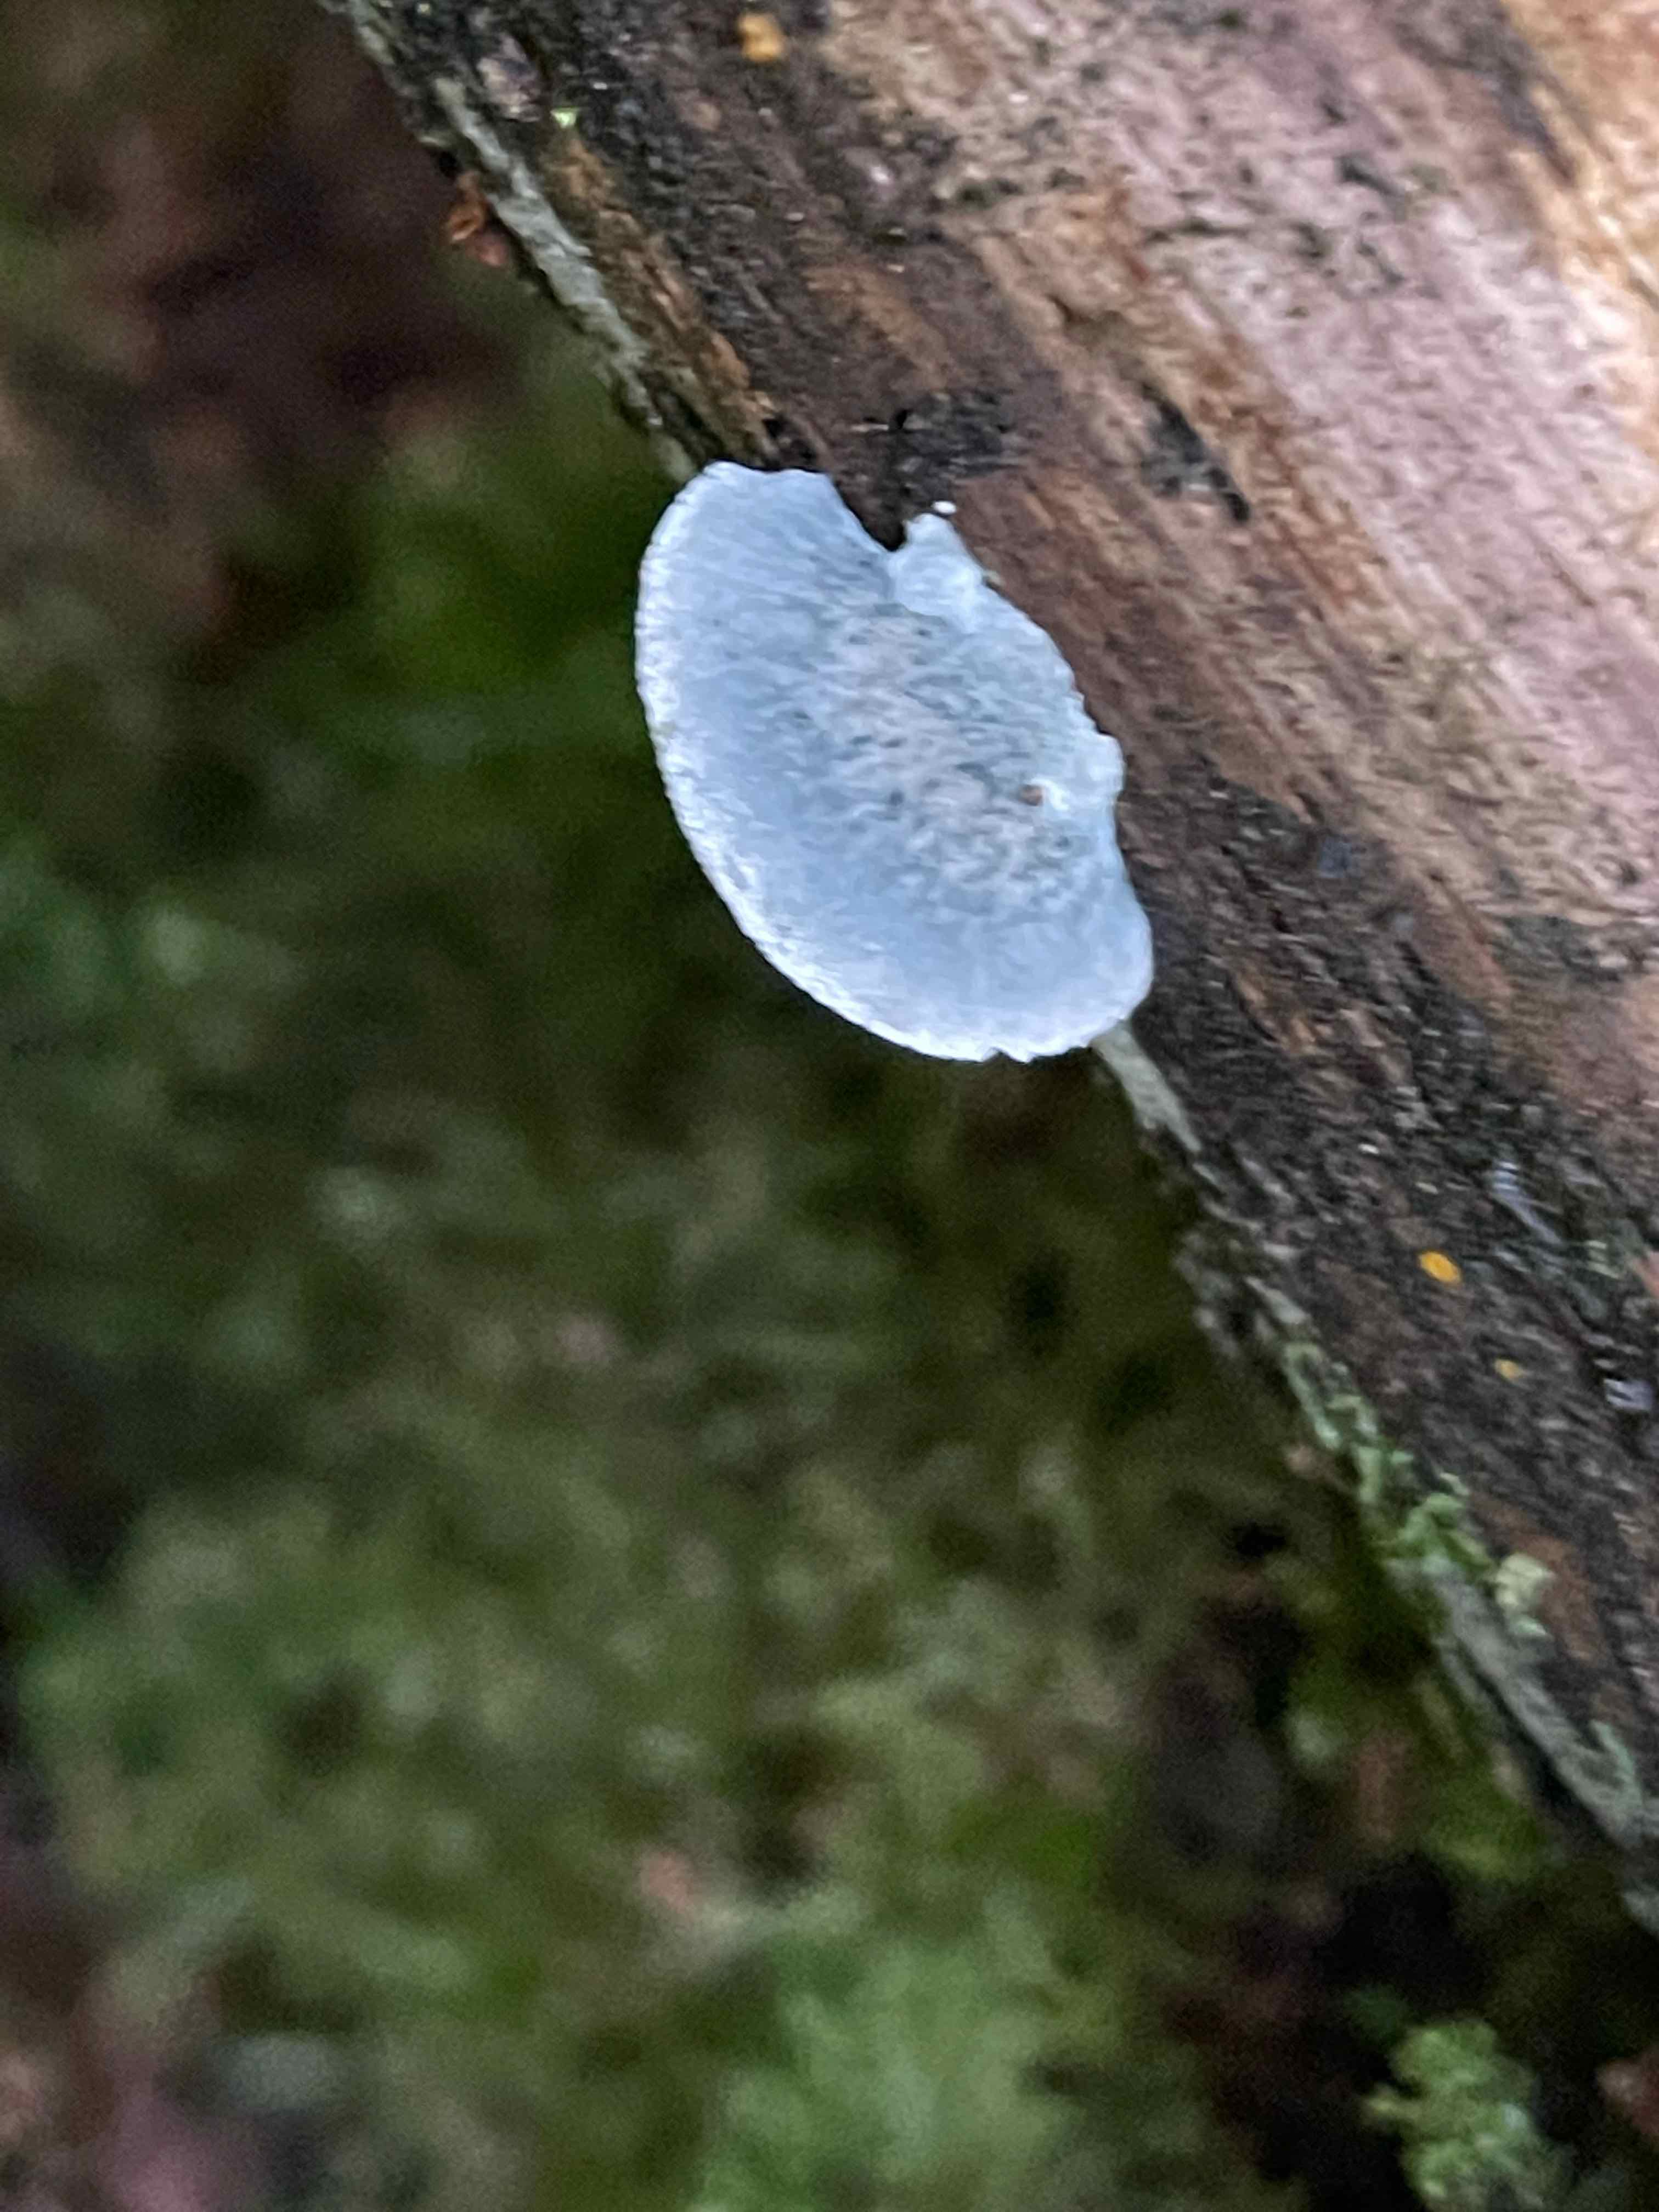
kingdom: Fungi
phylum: Basidiomycota
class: Agaricomycetes
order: Polyporales
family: Polyporaceae
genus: Cyanosporus
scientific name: Cyanosporus caesius
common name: blålig kødporesvamp
